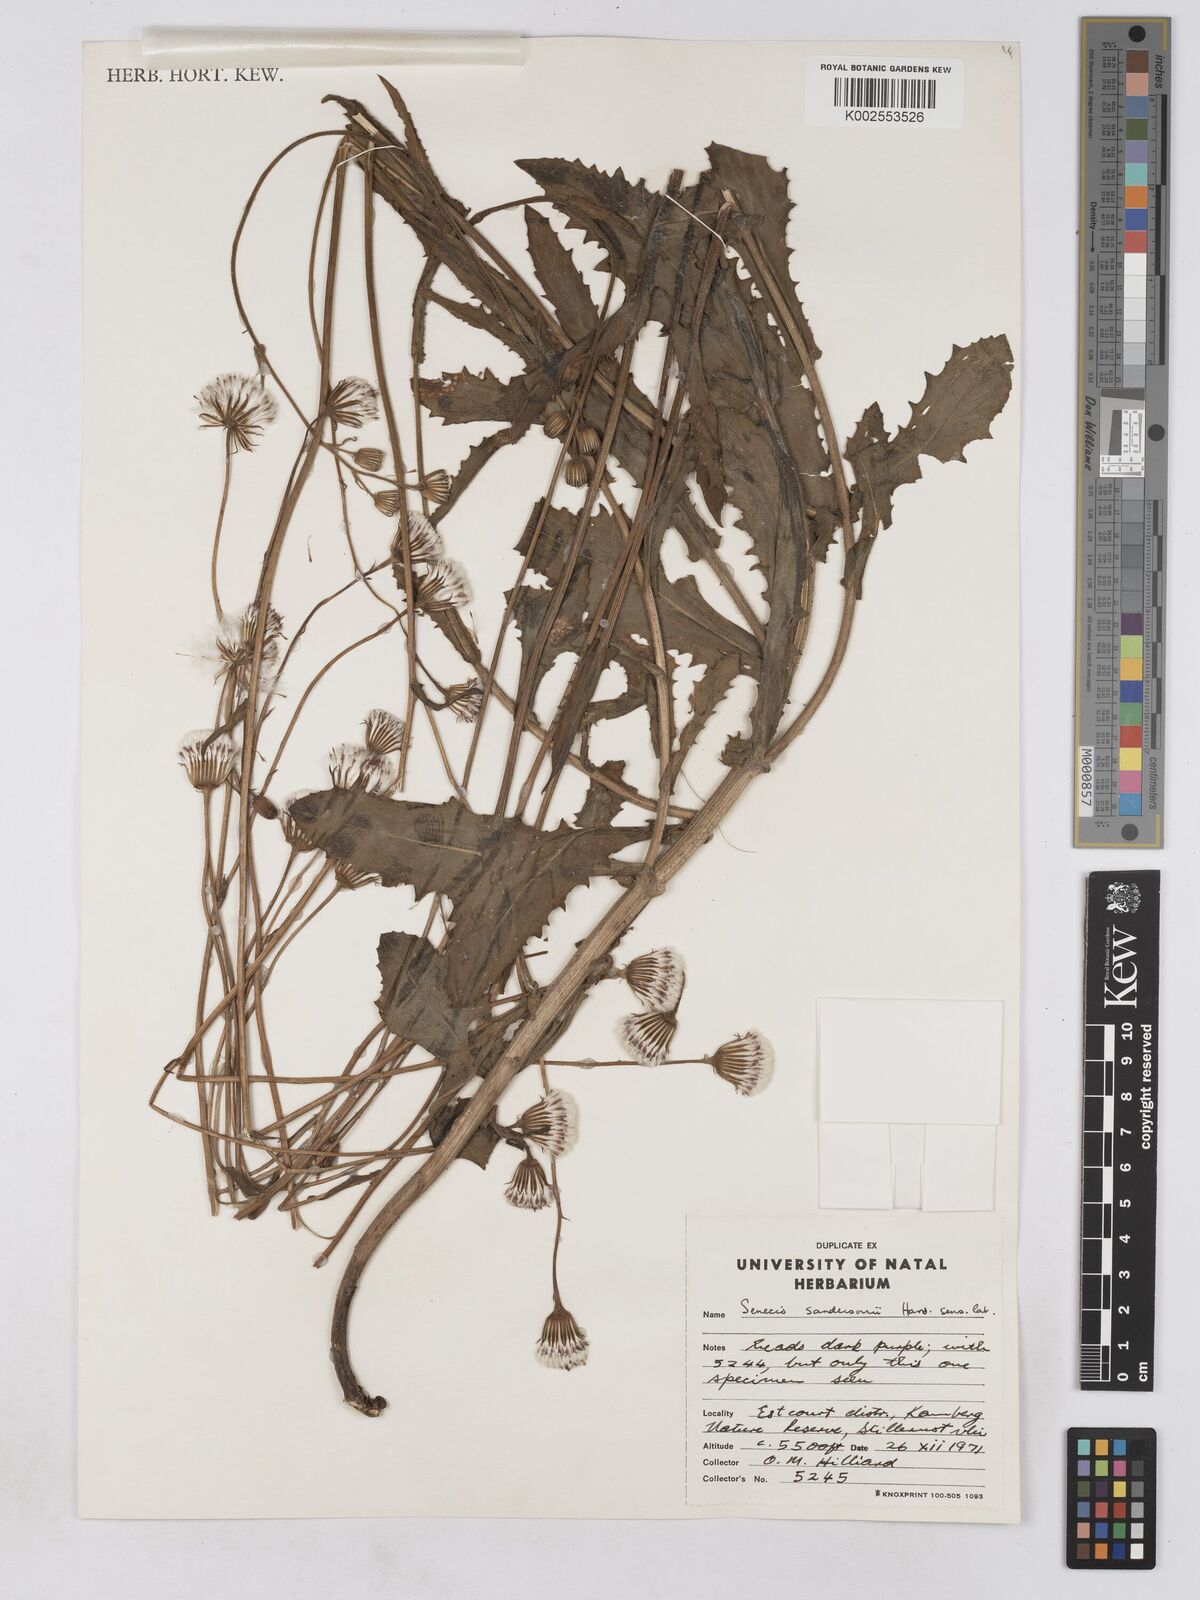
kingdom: Plantae
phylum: Tracheophyta
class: Magnoliopsida
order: Asterales
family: Asteraceae
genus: Senecio
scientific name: Senecio sandersonii
